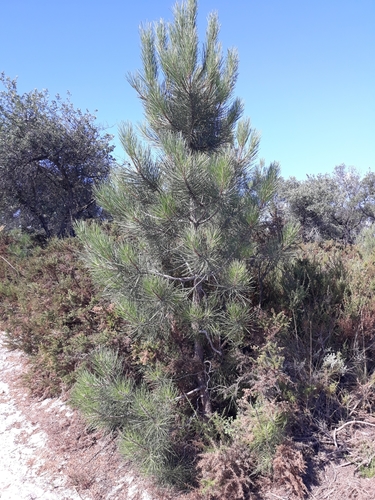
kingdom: Plantae
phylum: Tracheophyta
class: Pinopsida
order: Pinales
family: Pinaceae
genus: Pinus
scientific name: Pinus pinaster
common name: Maritime pine
